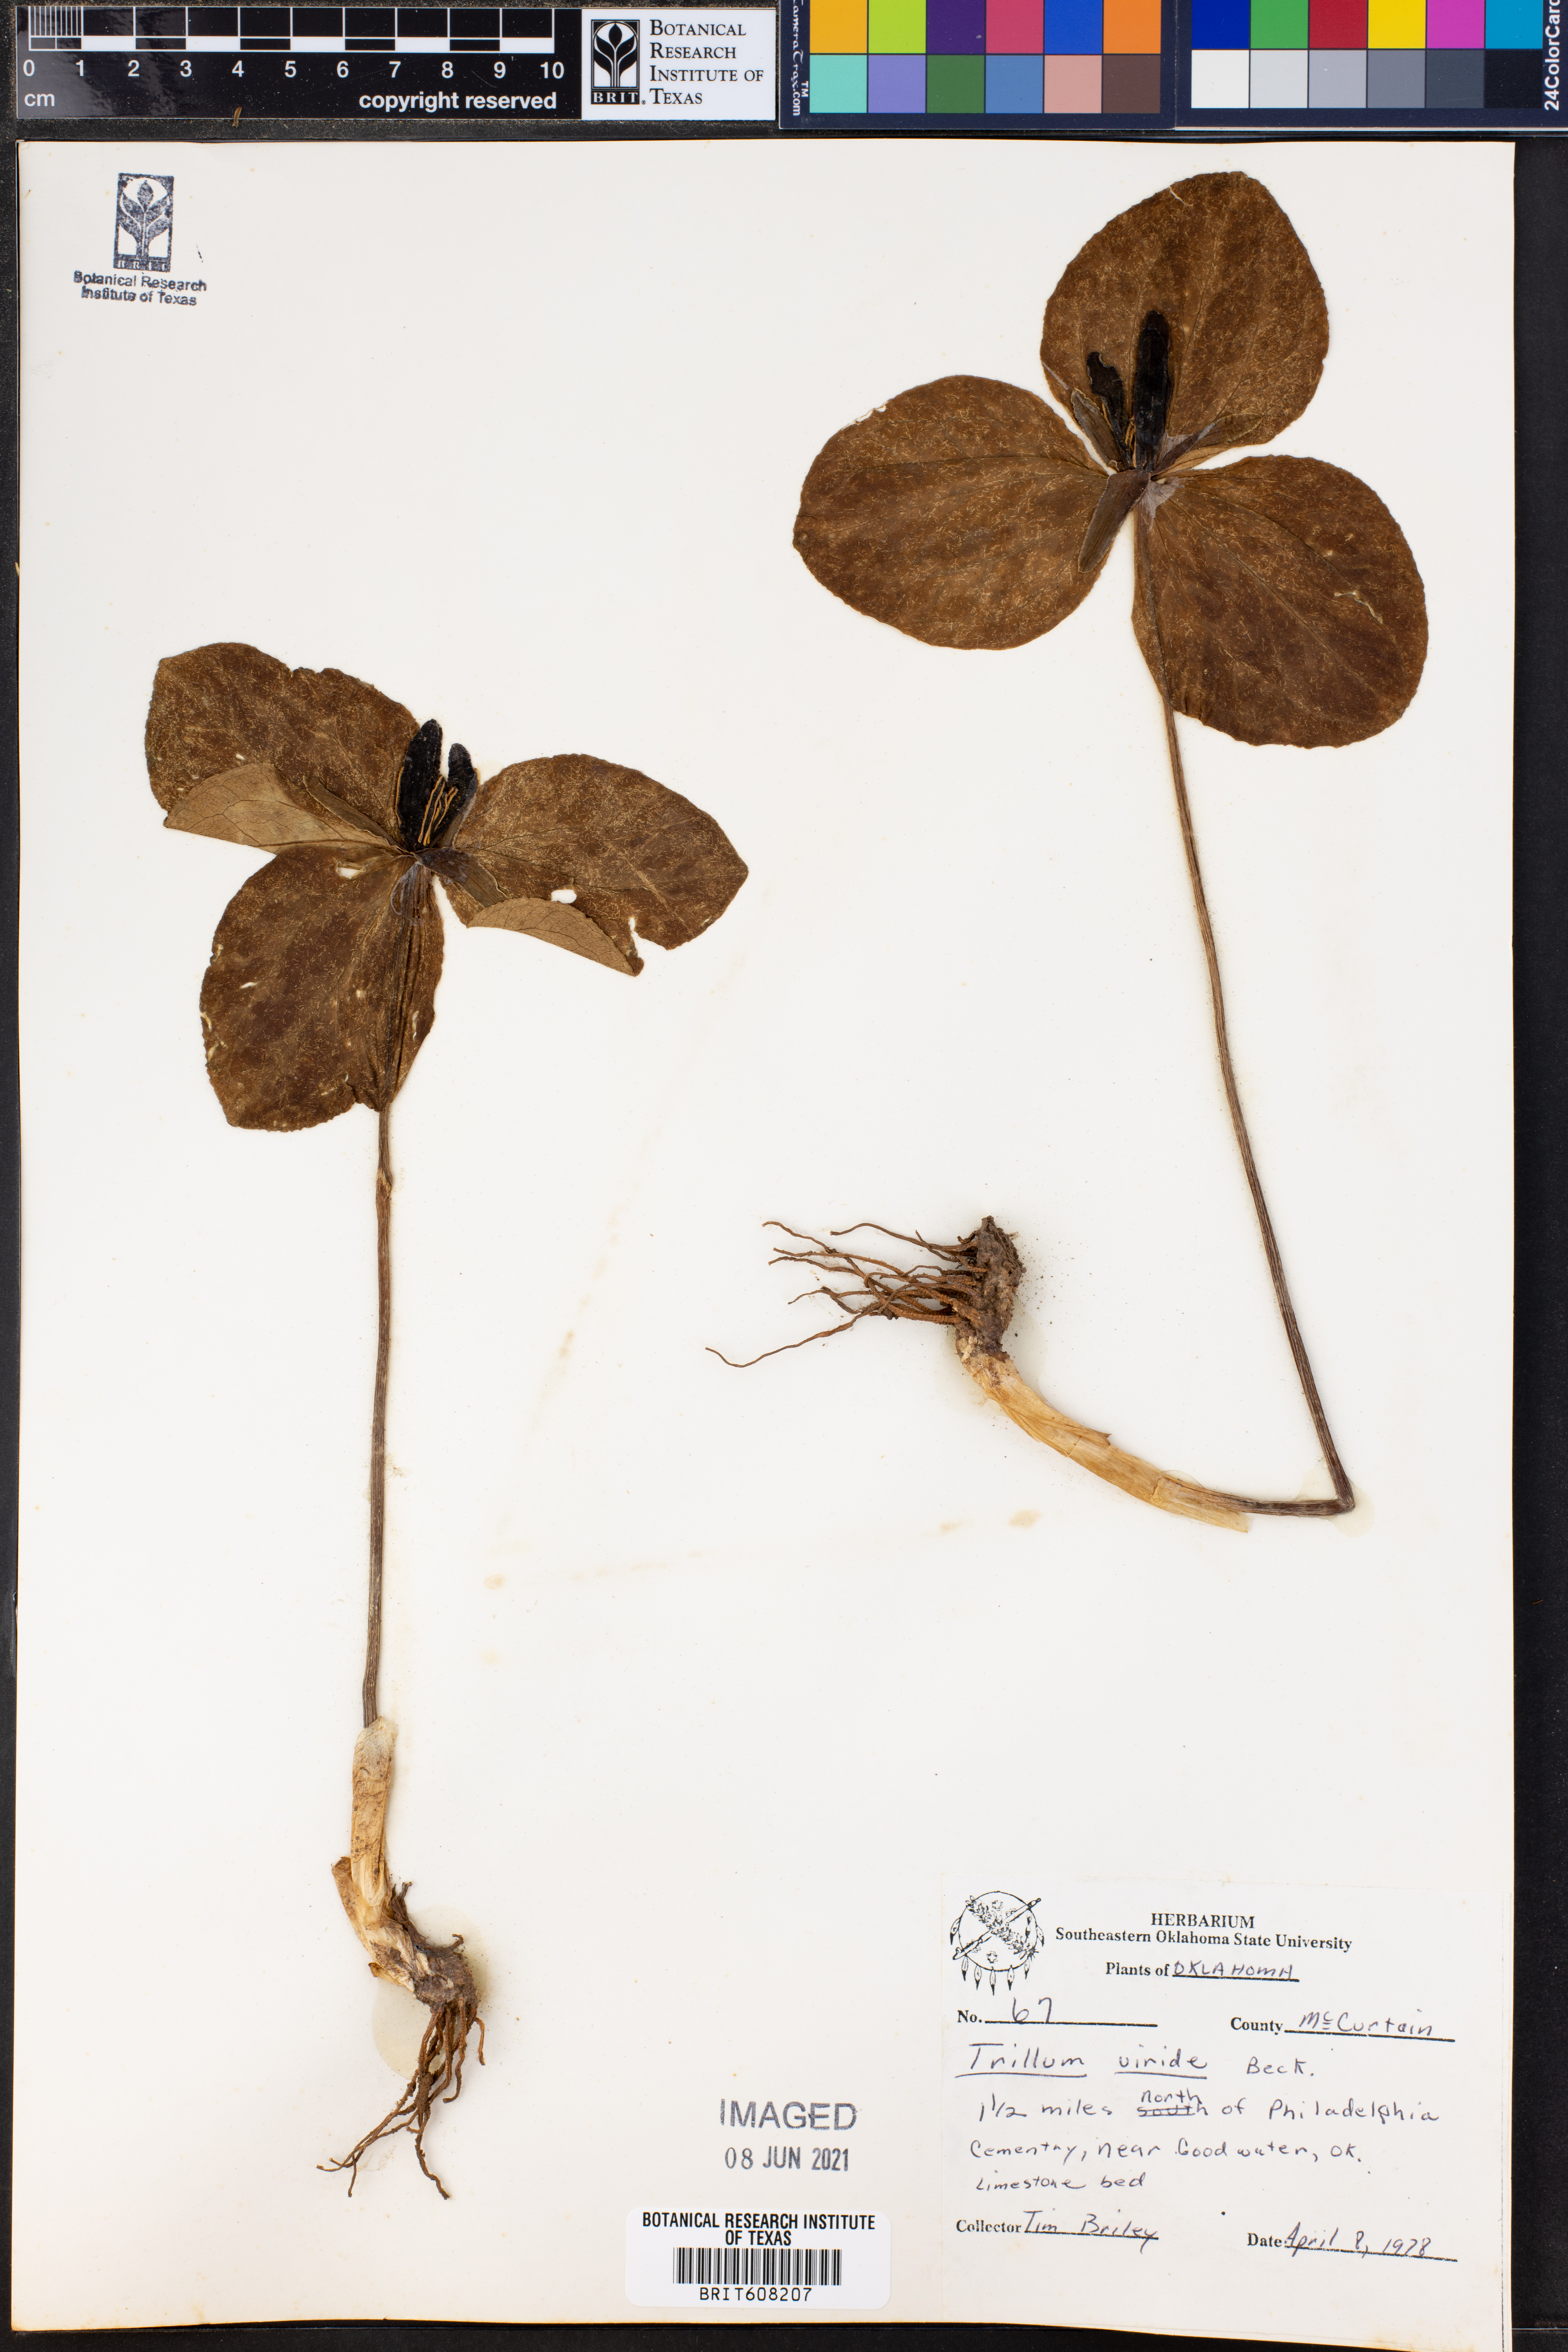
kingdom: Plantae
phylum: Tracheophyta
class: Liliopsida
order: Liliales
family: Melanthiaceae
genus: Trillium
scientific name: Trillium viride
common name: Green trillium
